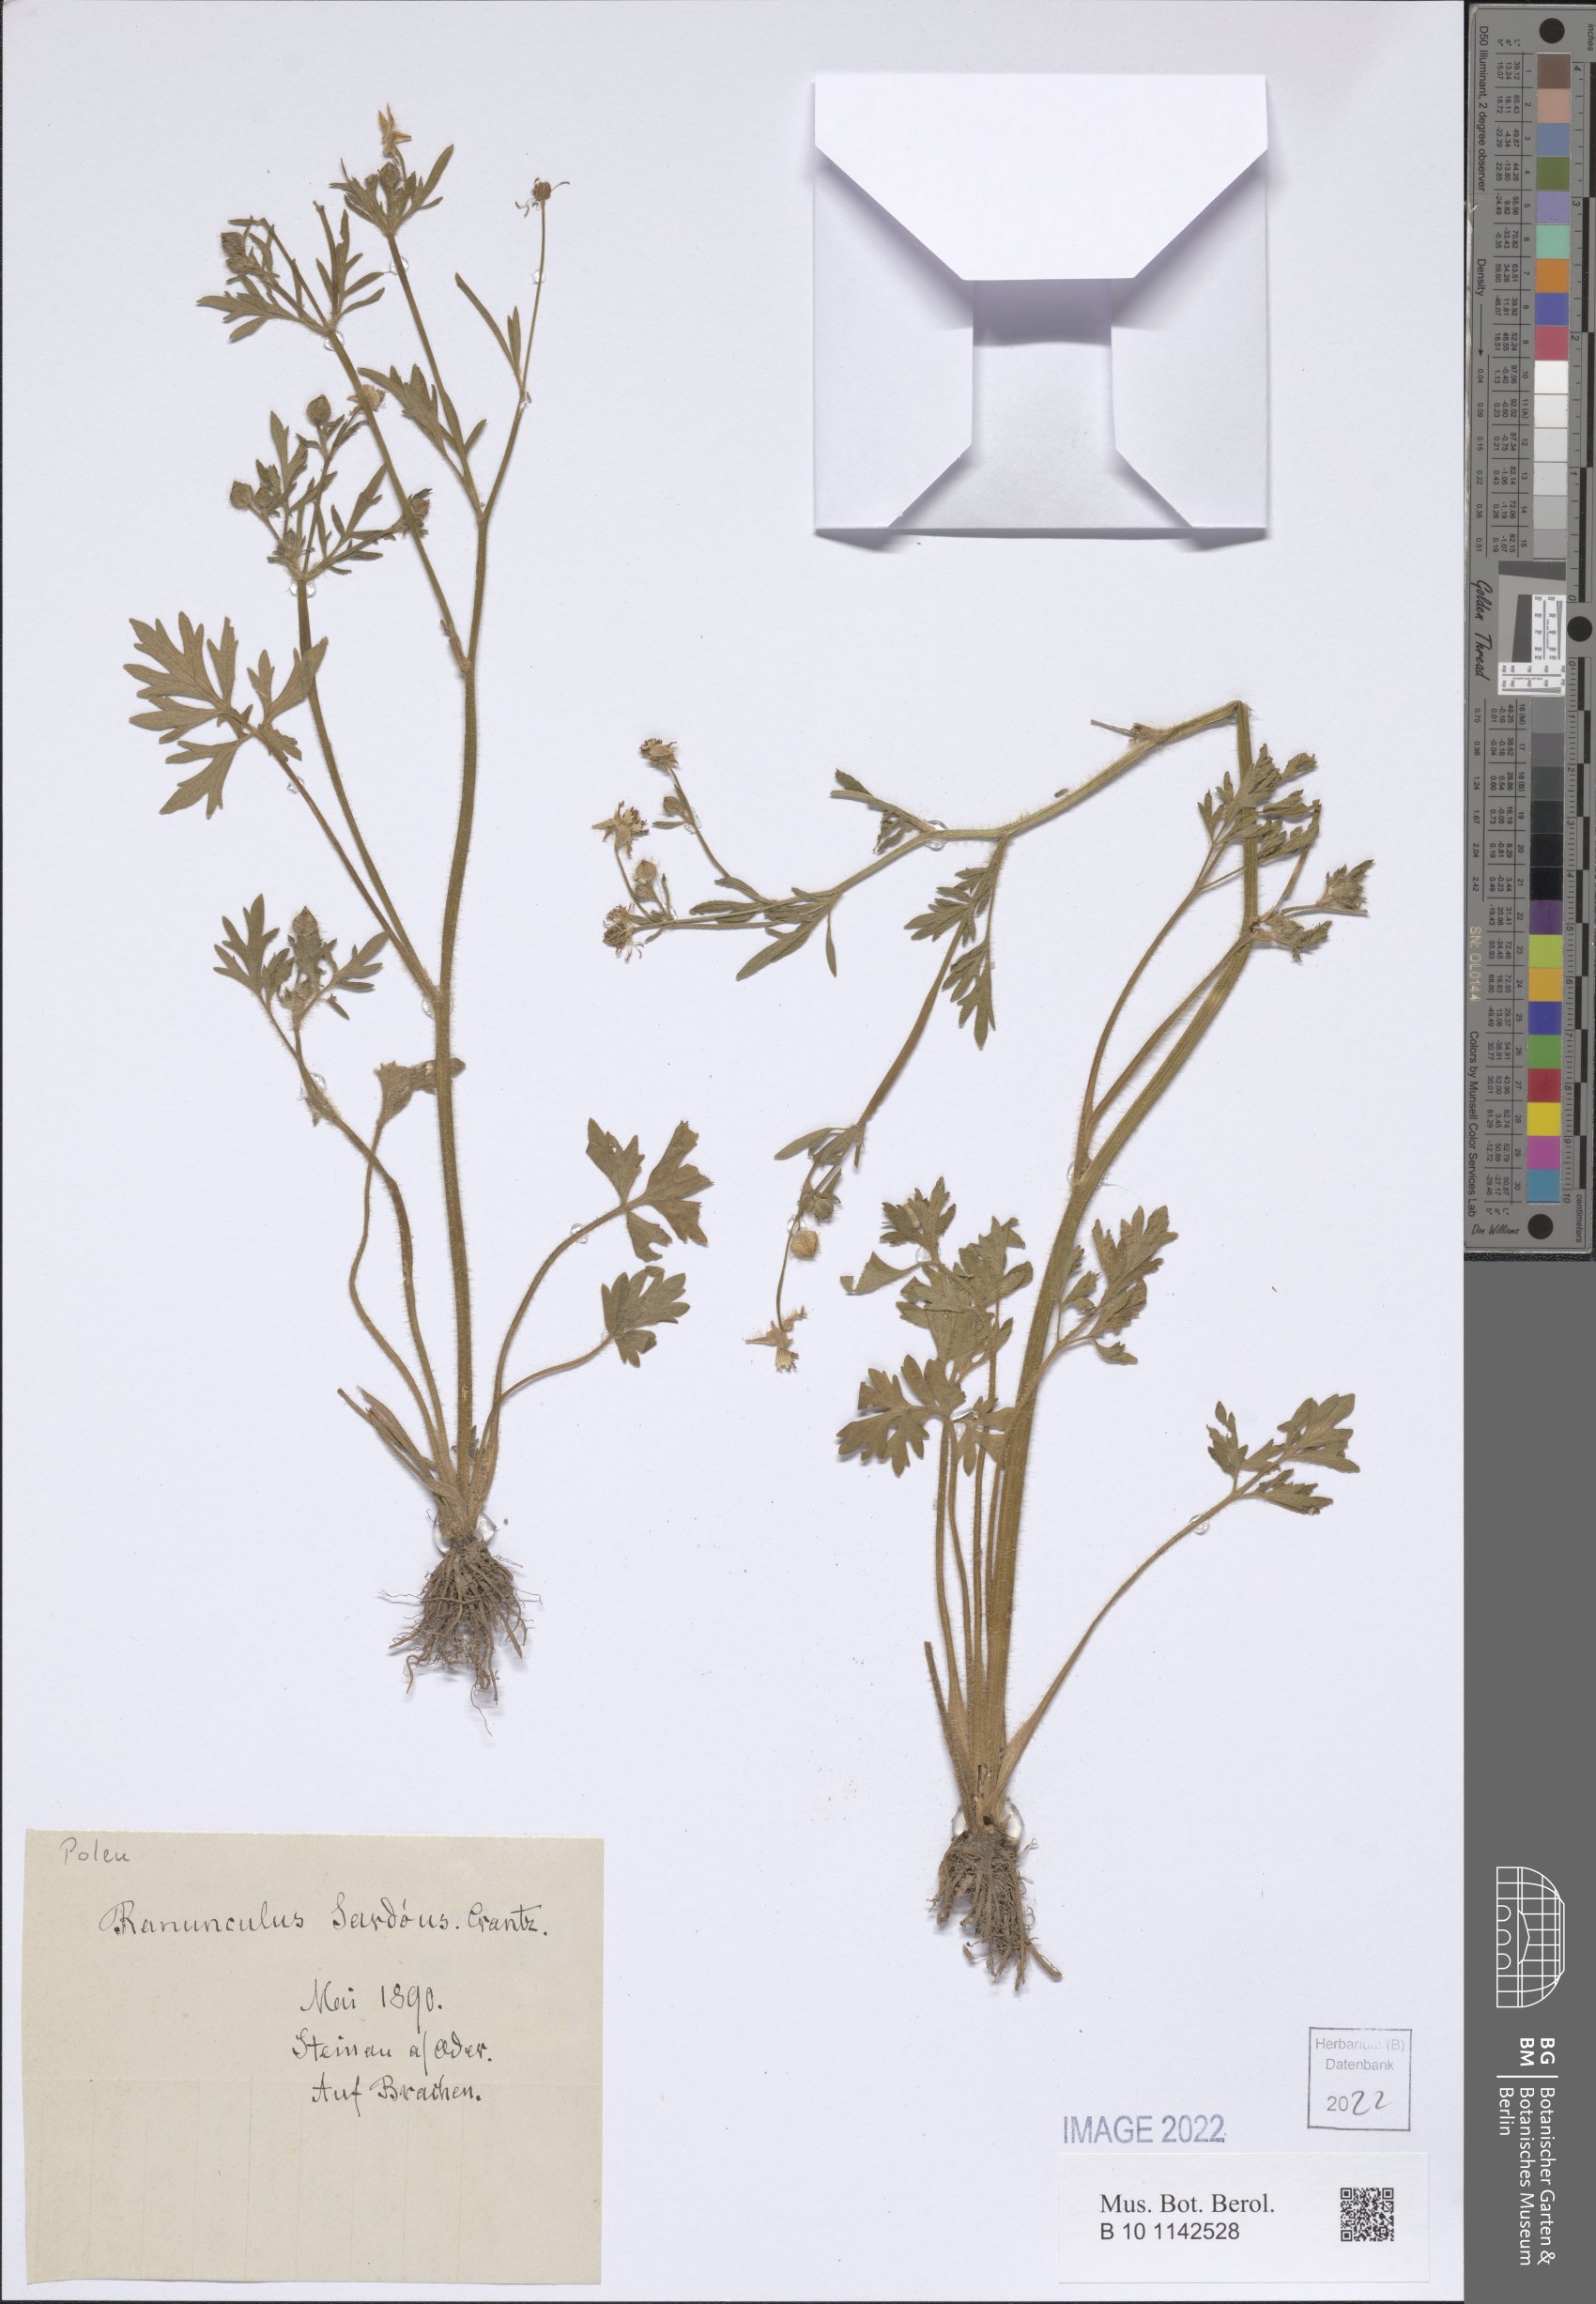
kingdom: Plantae
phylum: Tracheophyta
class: Magnoliopsida
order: Ranunculales
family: Ranunculaceae
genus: Ranunculus
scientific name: Ranunculus sardous
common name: Hairy buttercup
